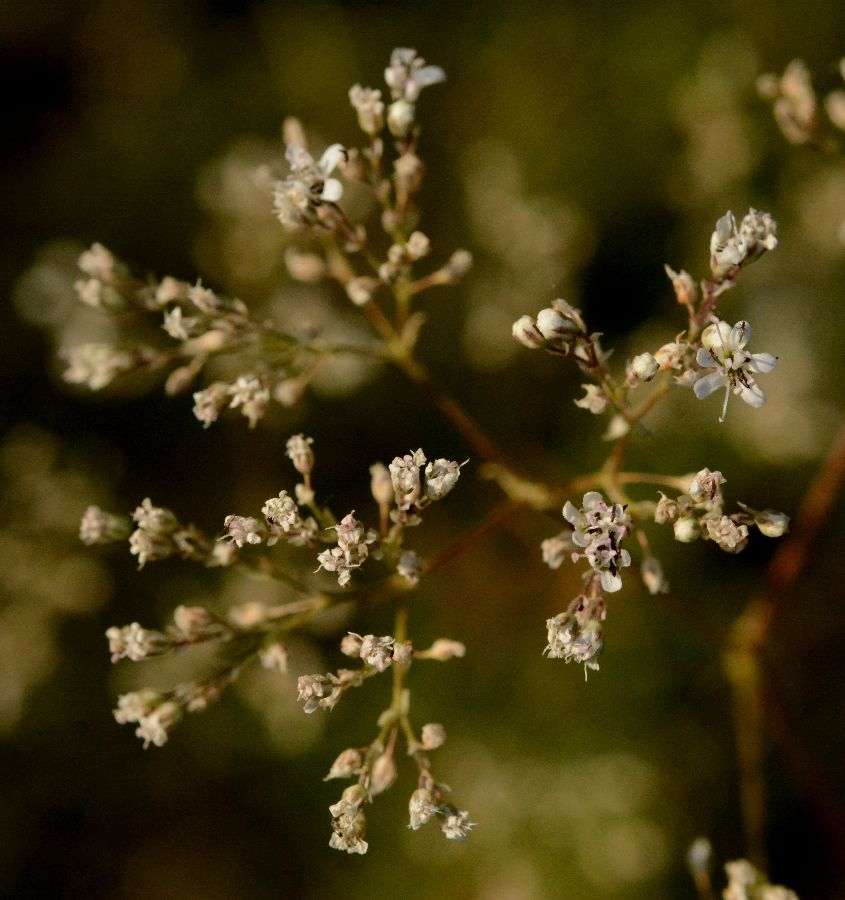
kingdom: Plantae
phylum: Tracheophyta
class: Magnoliopsida
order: Caryophyllales
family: Caryophyllaceae
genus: Gypsophila
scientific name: Gypsophila altissima
